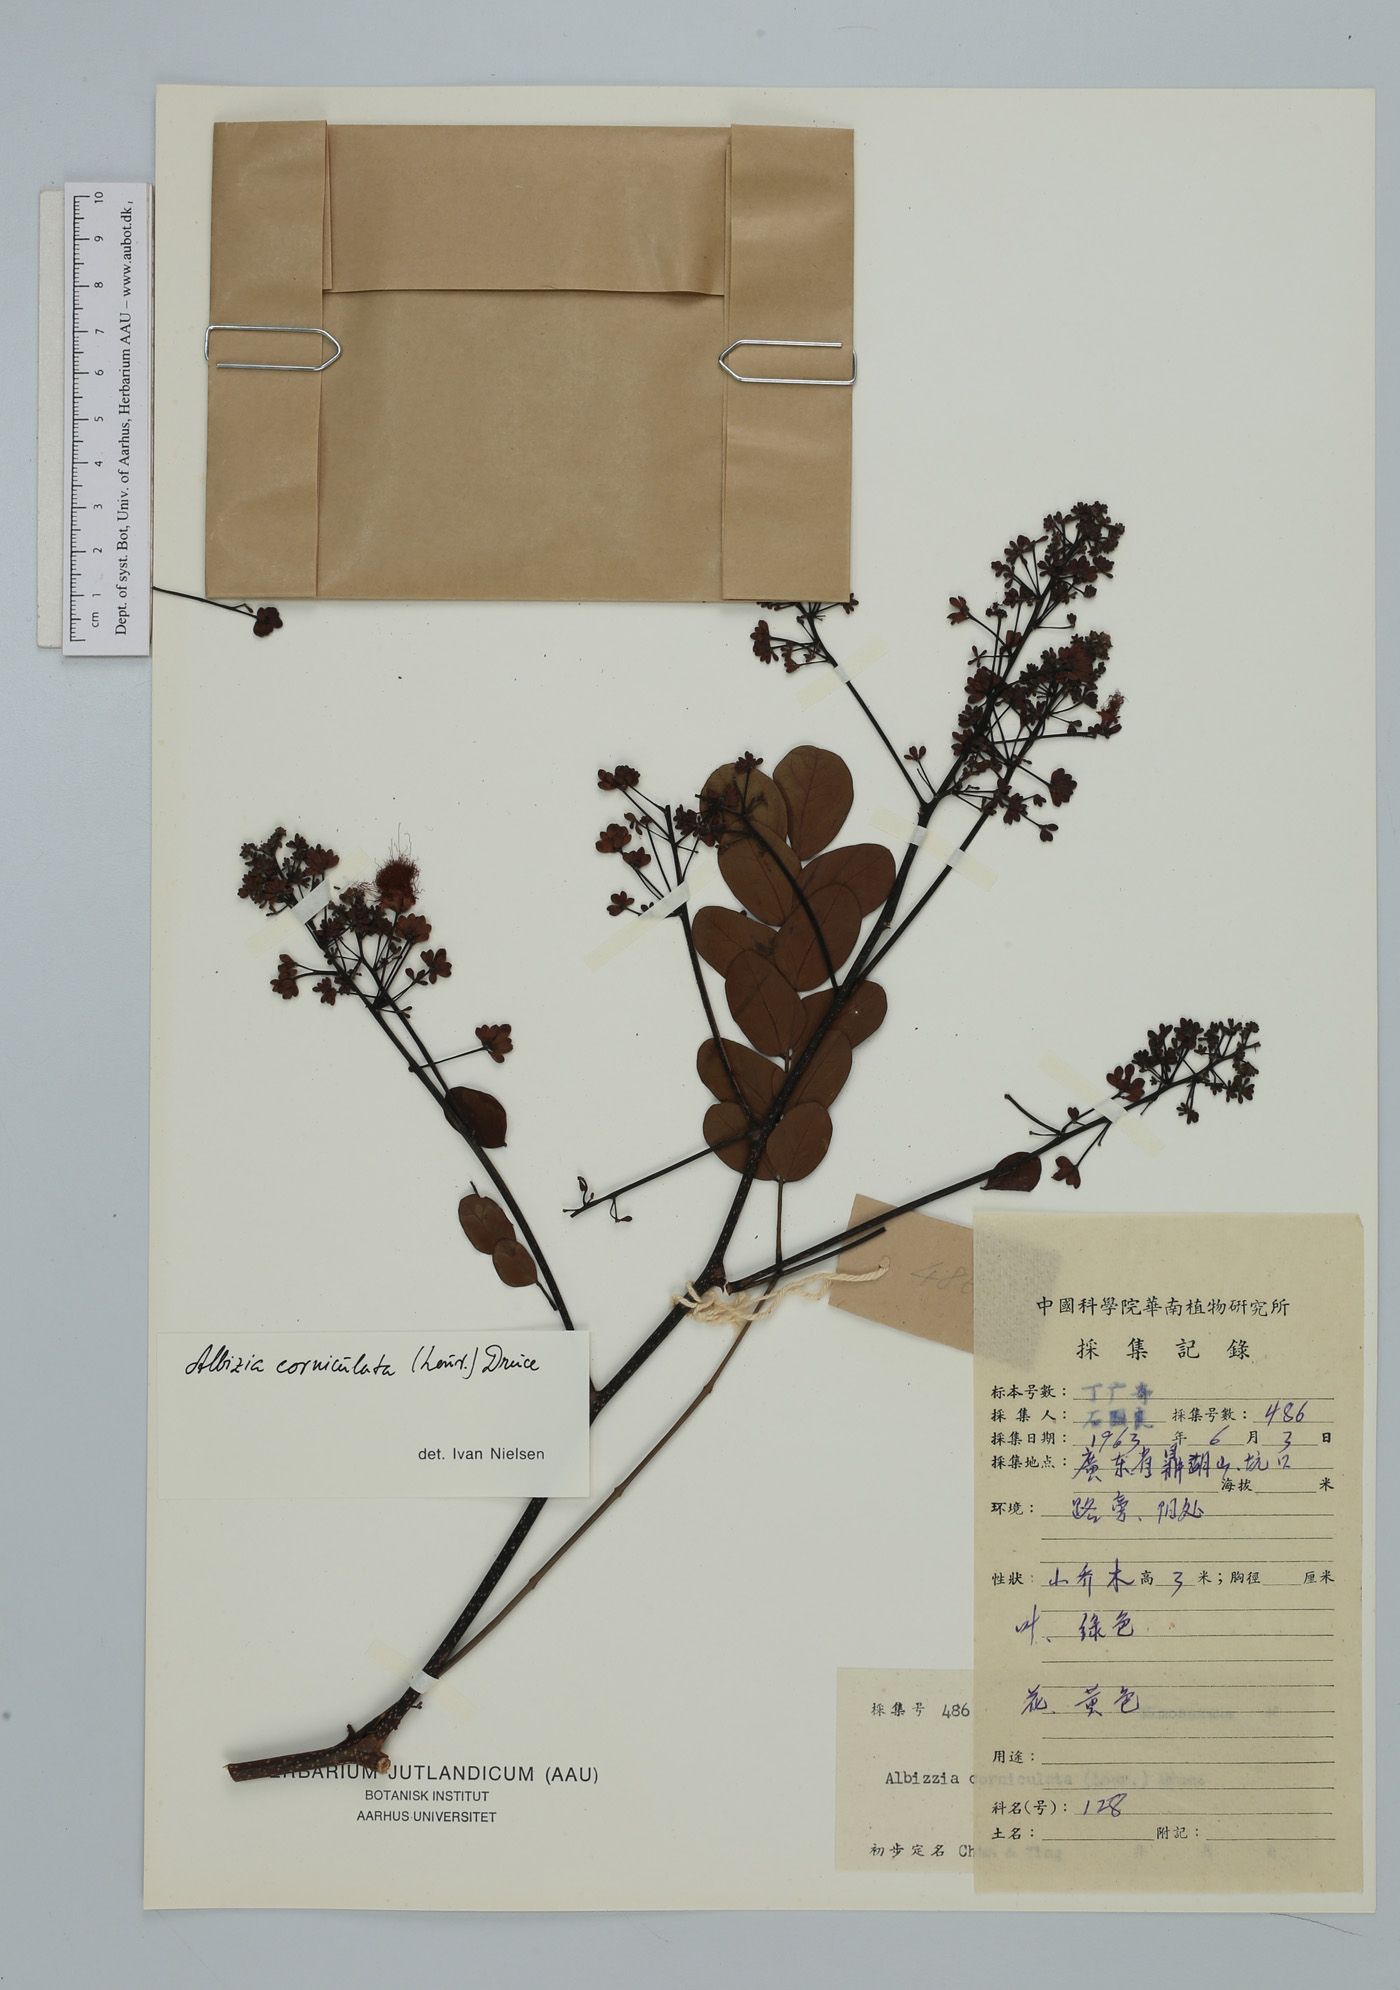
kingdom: Plantae
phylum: Tracheophyta
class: Magnoliopsida
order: Fabales
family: Fabaceae
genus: Albizia
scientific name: Albizia corniculata
